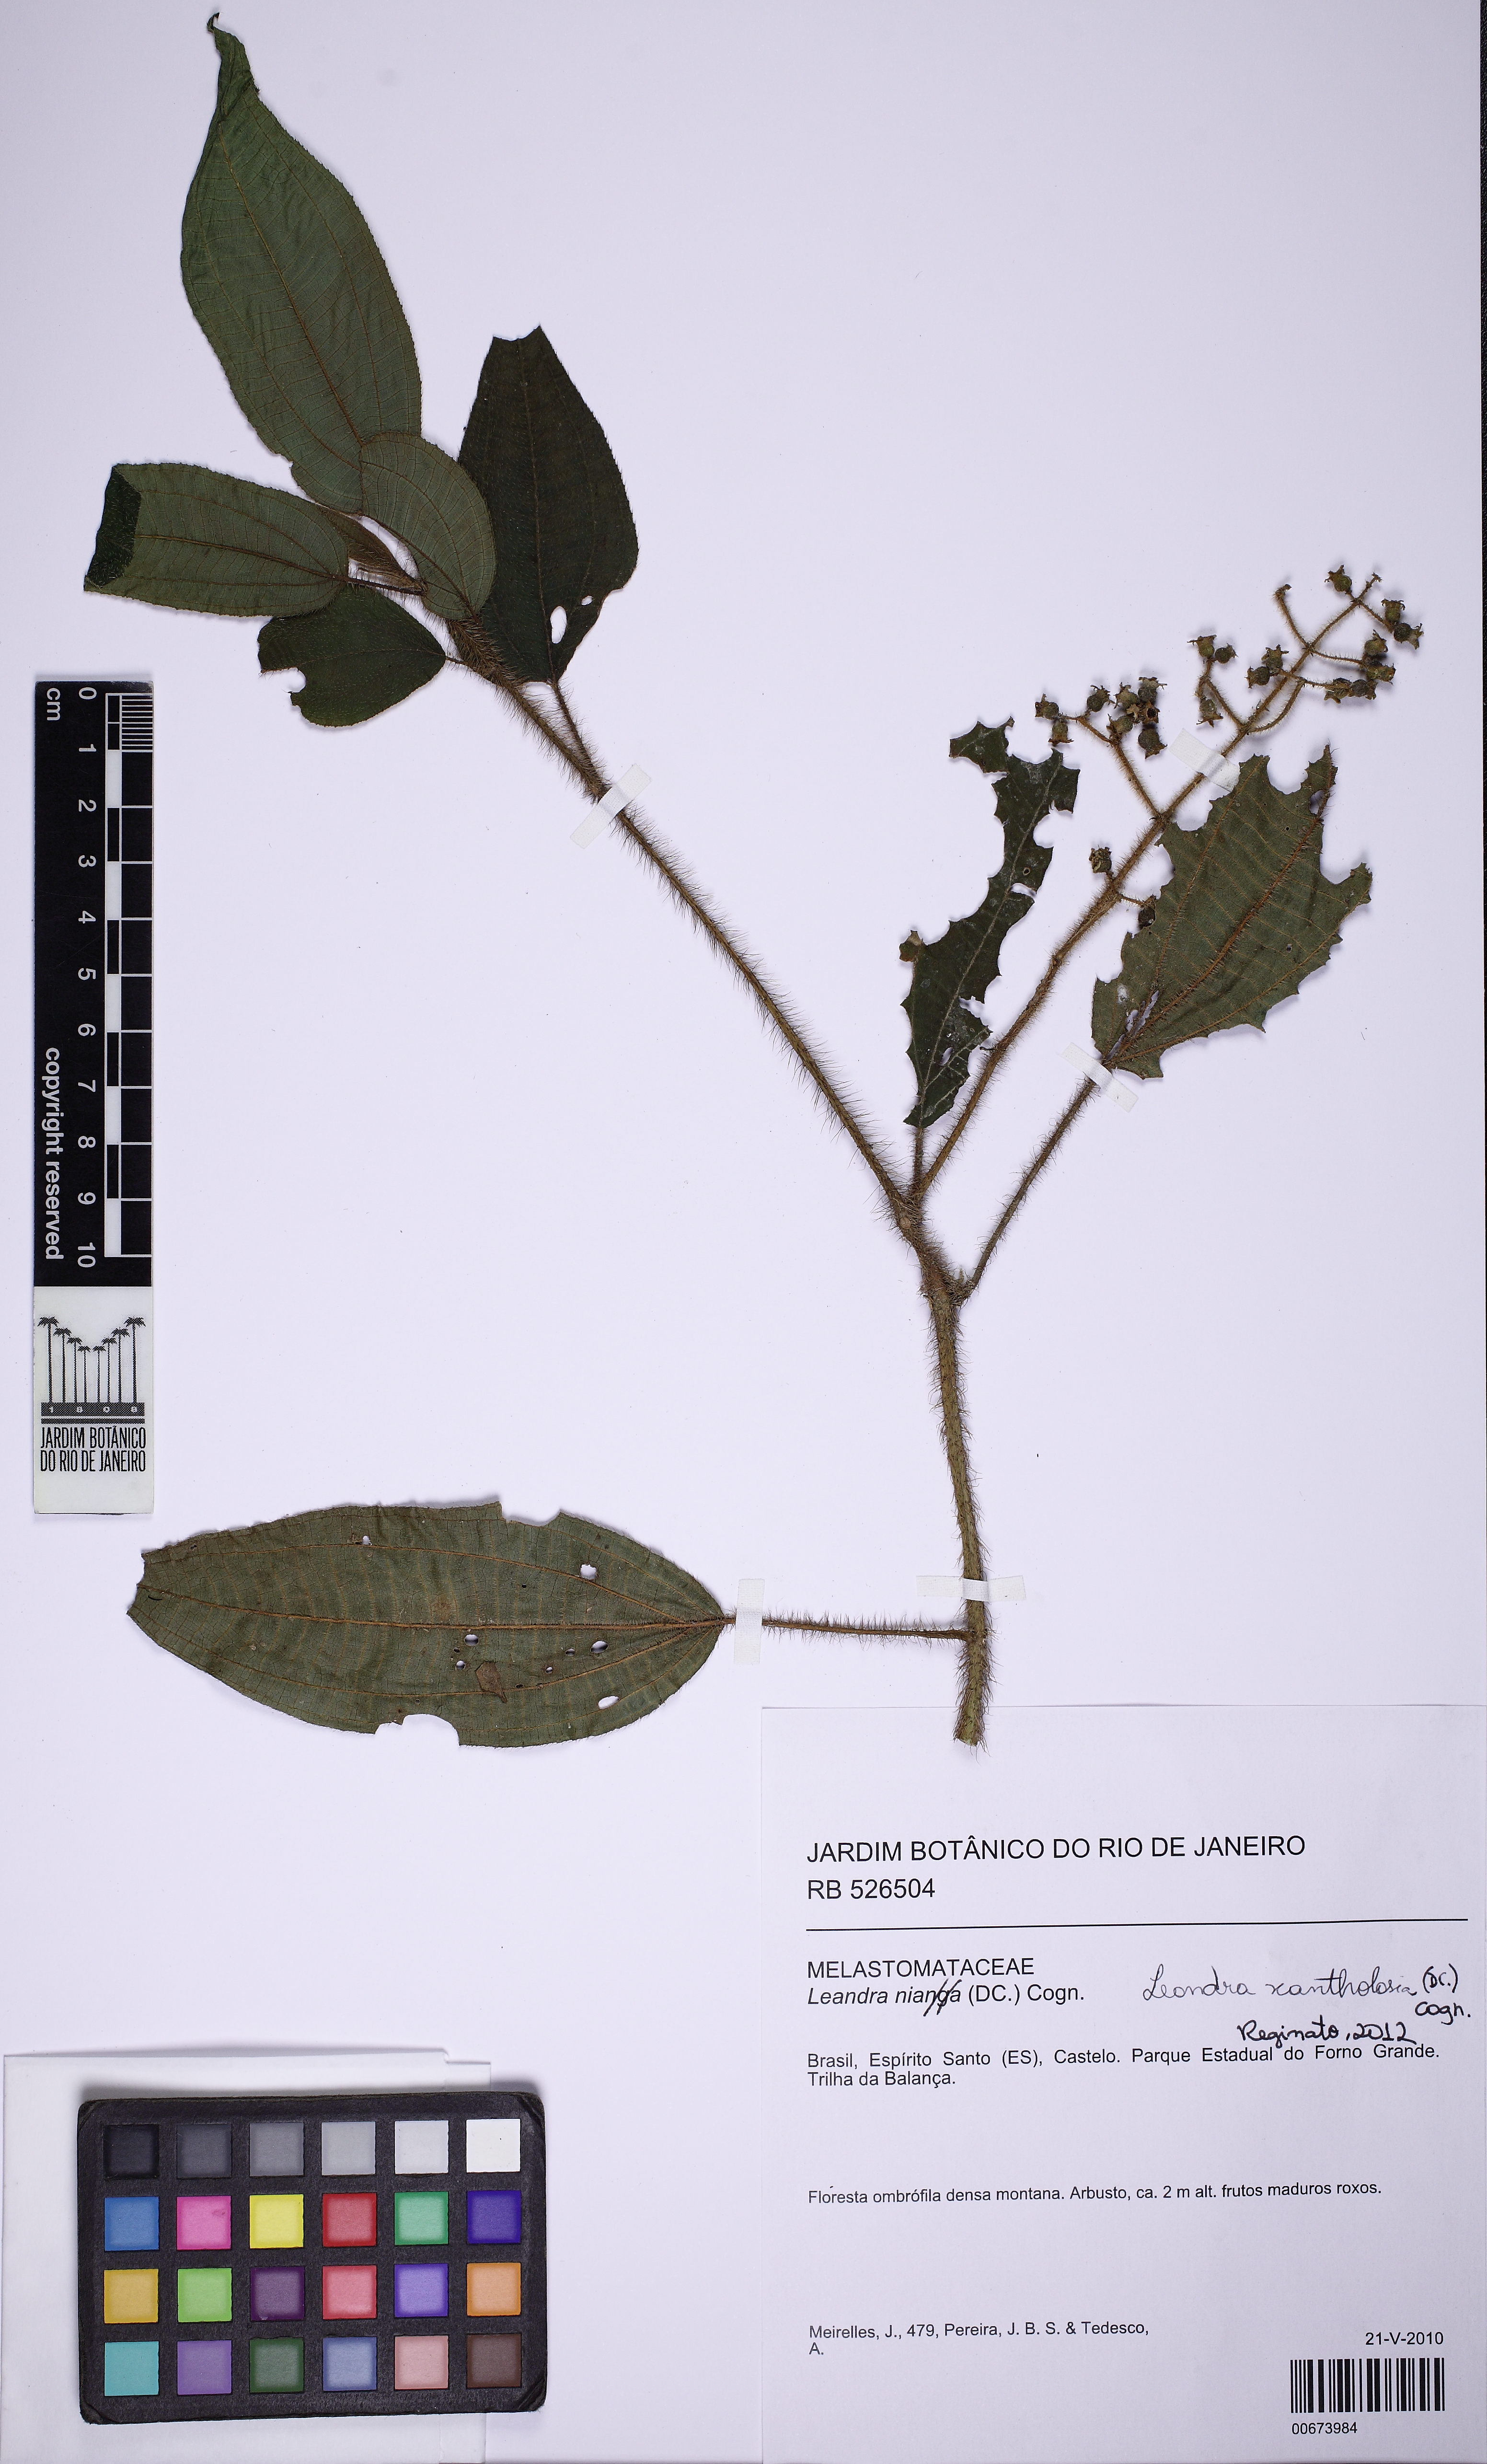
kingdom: Plantae
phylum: Tracheophyta
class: Magnoliopsida
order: Myrtales
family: Melastomataceae
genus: Miconia
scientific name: Miconia nianga
